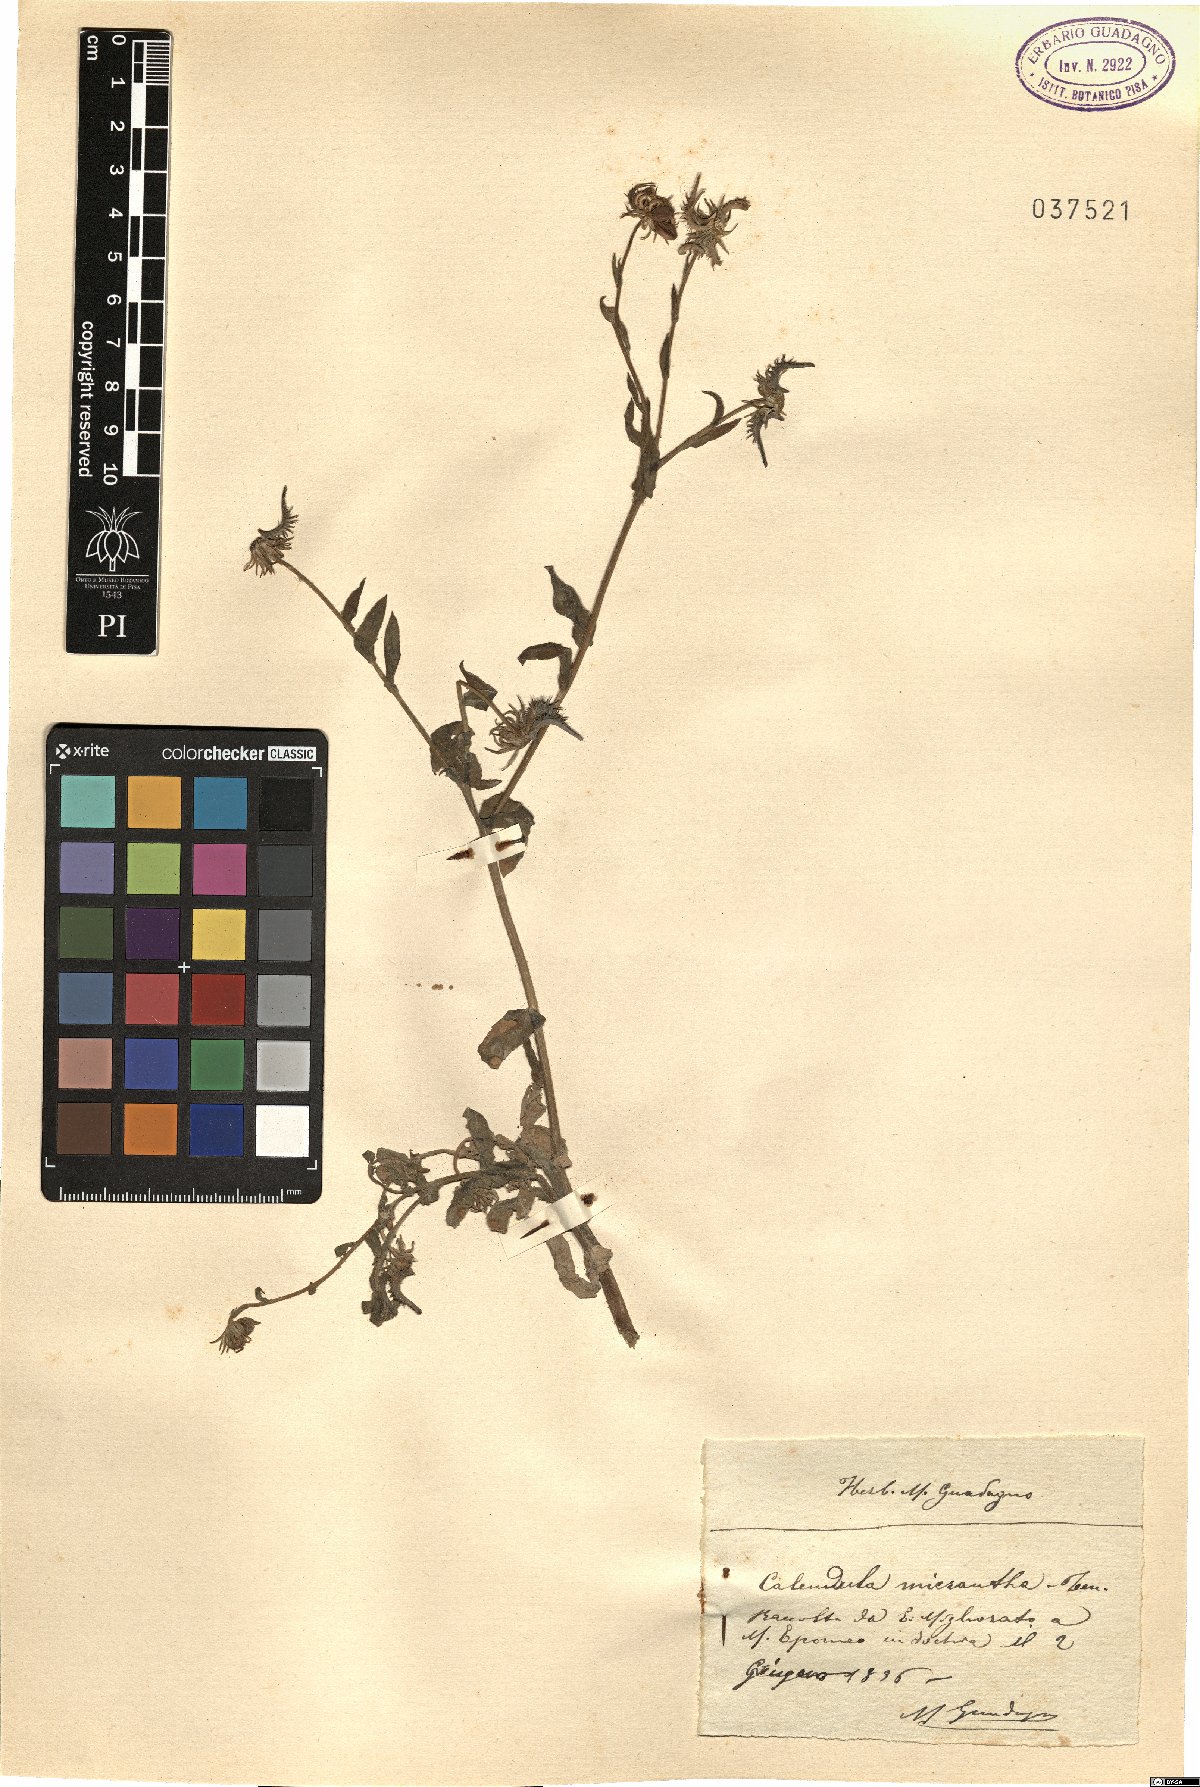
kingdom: Plantae
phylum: Tracheophyta
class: Magnoliopsida
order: Asterales
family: Asteraceae
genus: Calendula
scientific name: Calendula arvensis
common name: Field marigold
